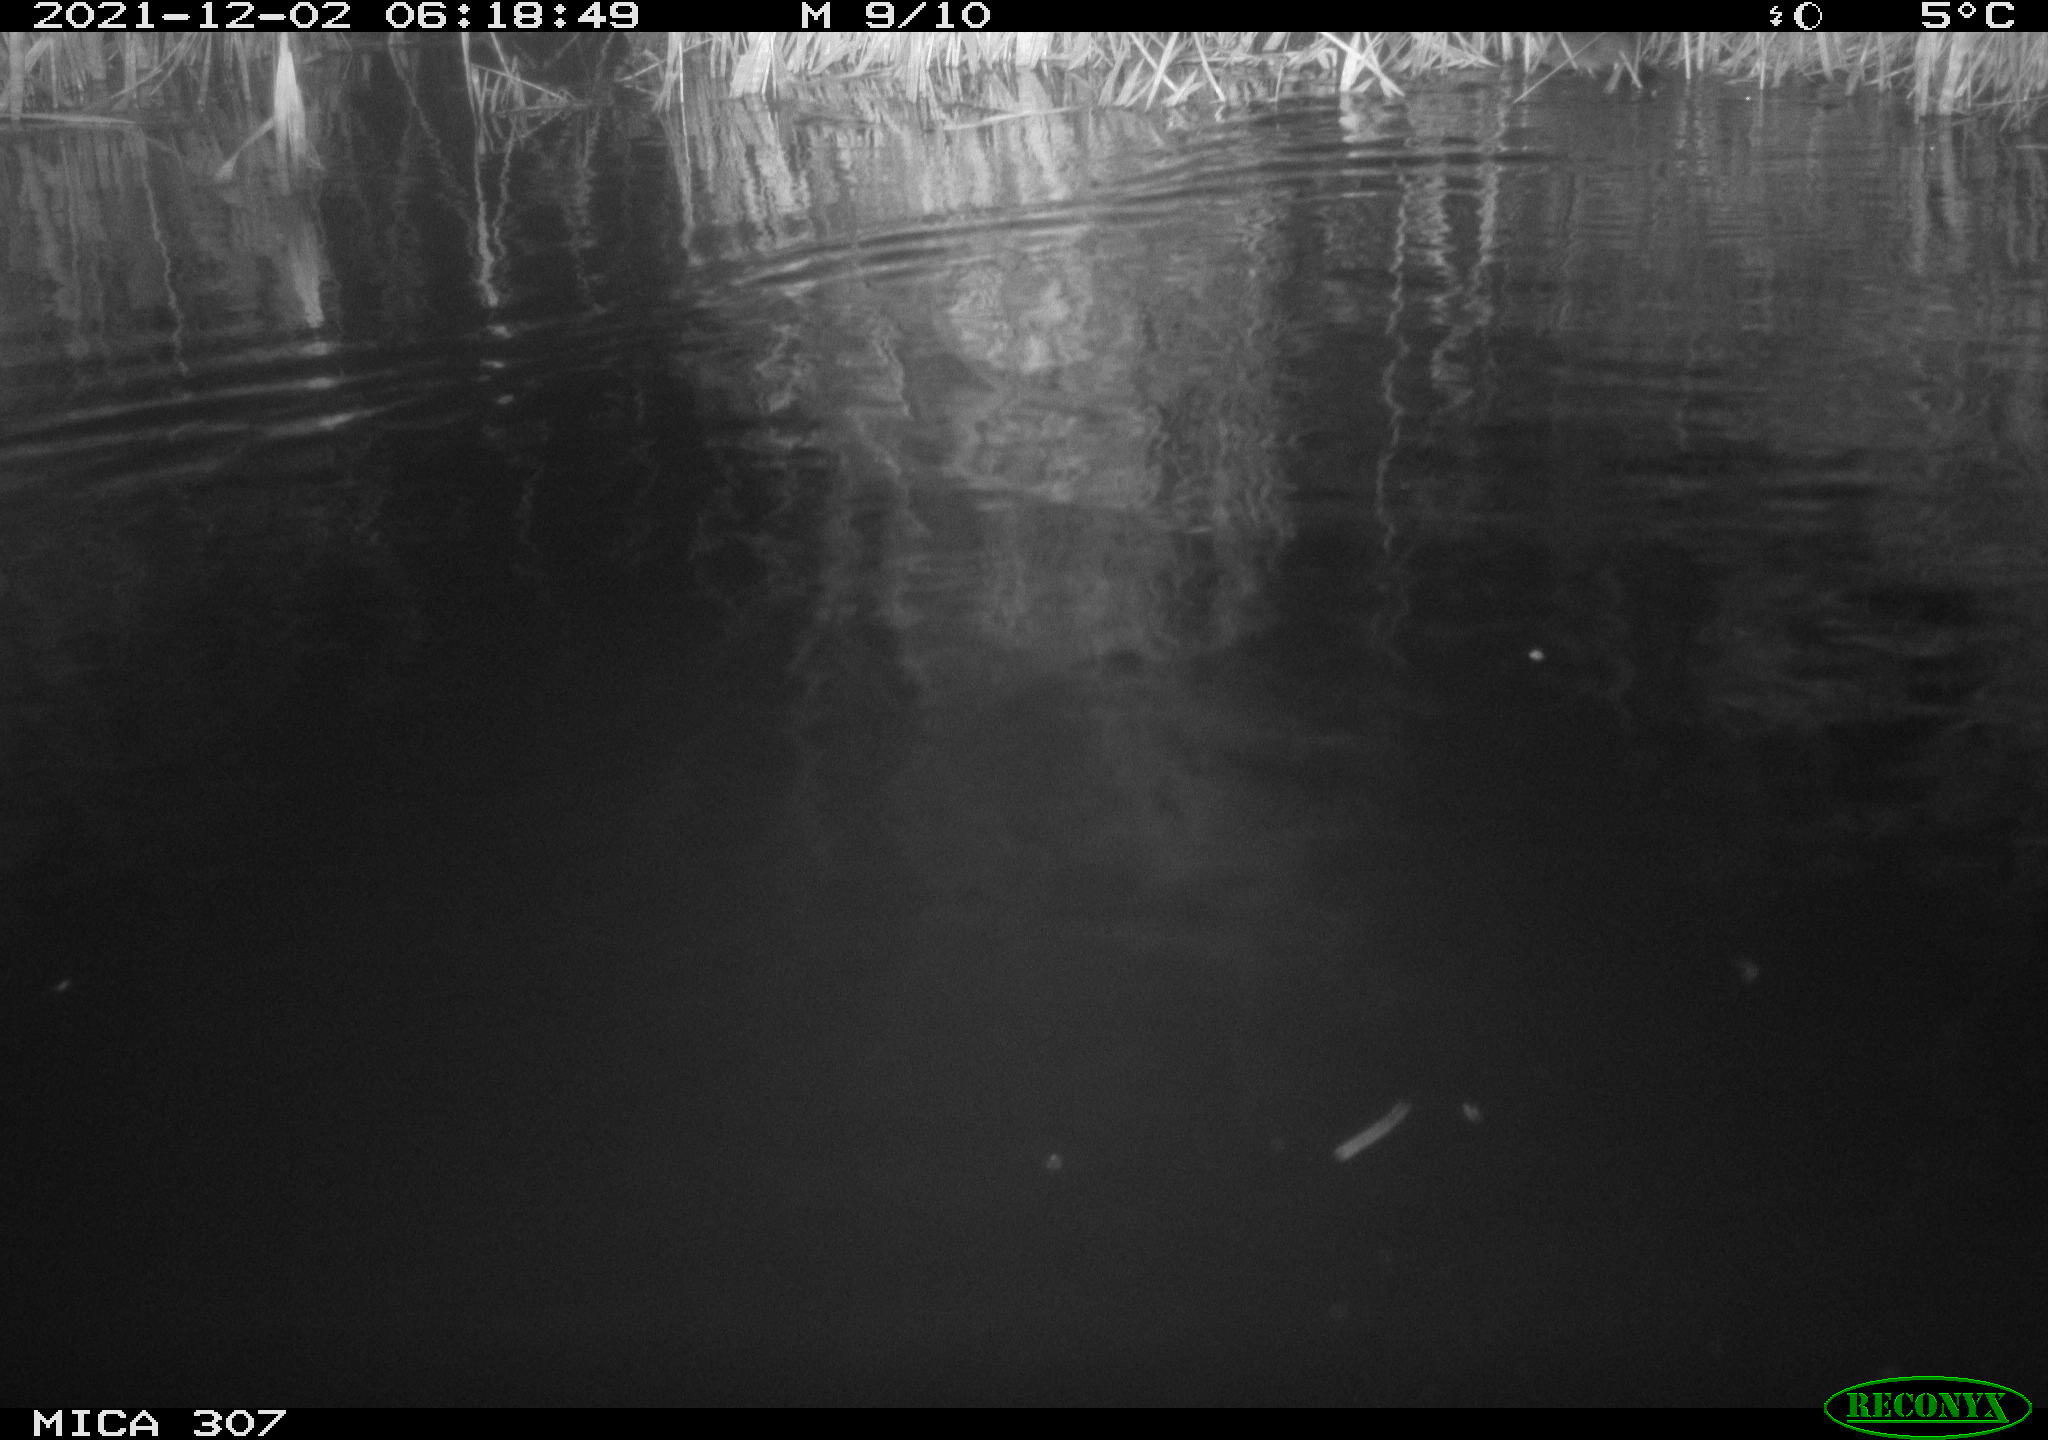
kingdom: Animalia
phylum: Chordata
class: Mammalia
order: Rodentia
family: Muridae
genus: Rattus
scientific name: Rattus norvegicus
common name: Brown rat
